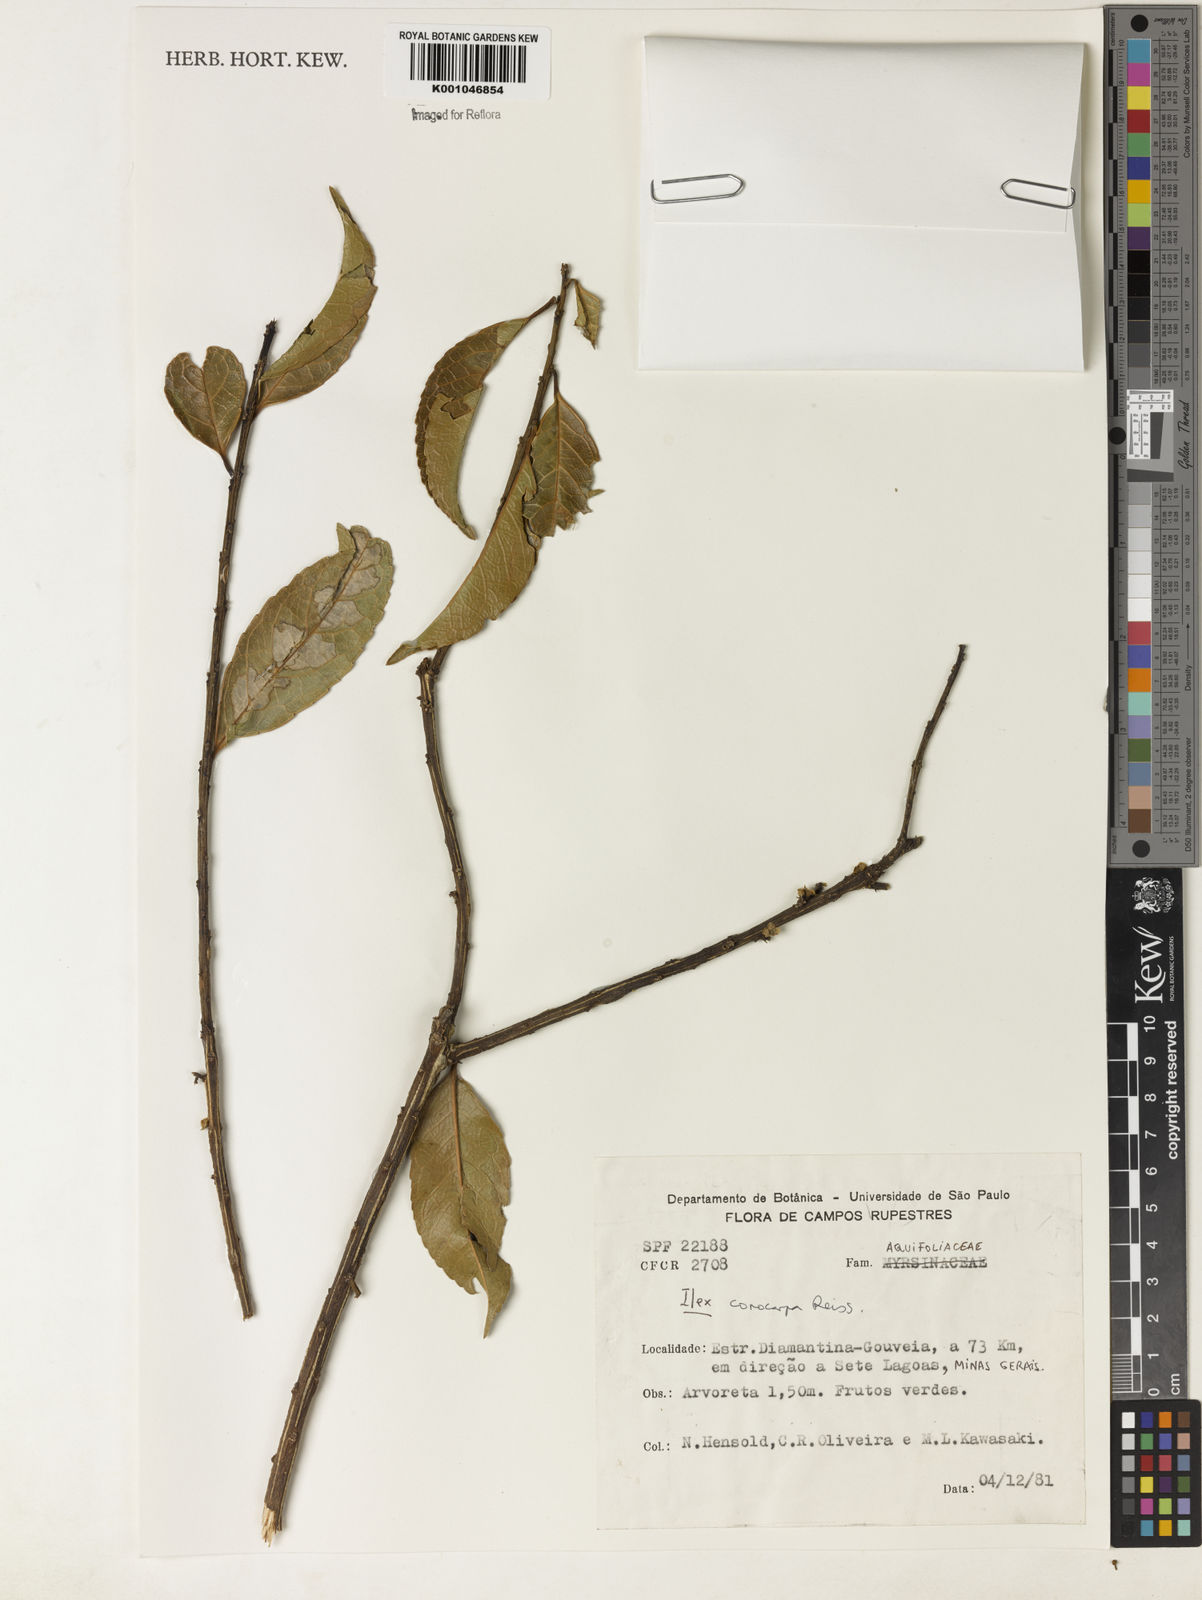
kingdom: Plantae
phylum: Tracheophyta
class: Magnoliopsida
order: Aquifoliales
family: Aquifoliaceae
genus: Ilex
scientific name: Ilex conocarpa
